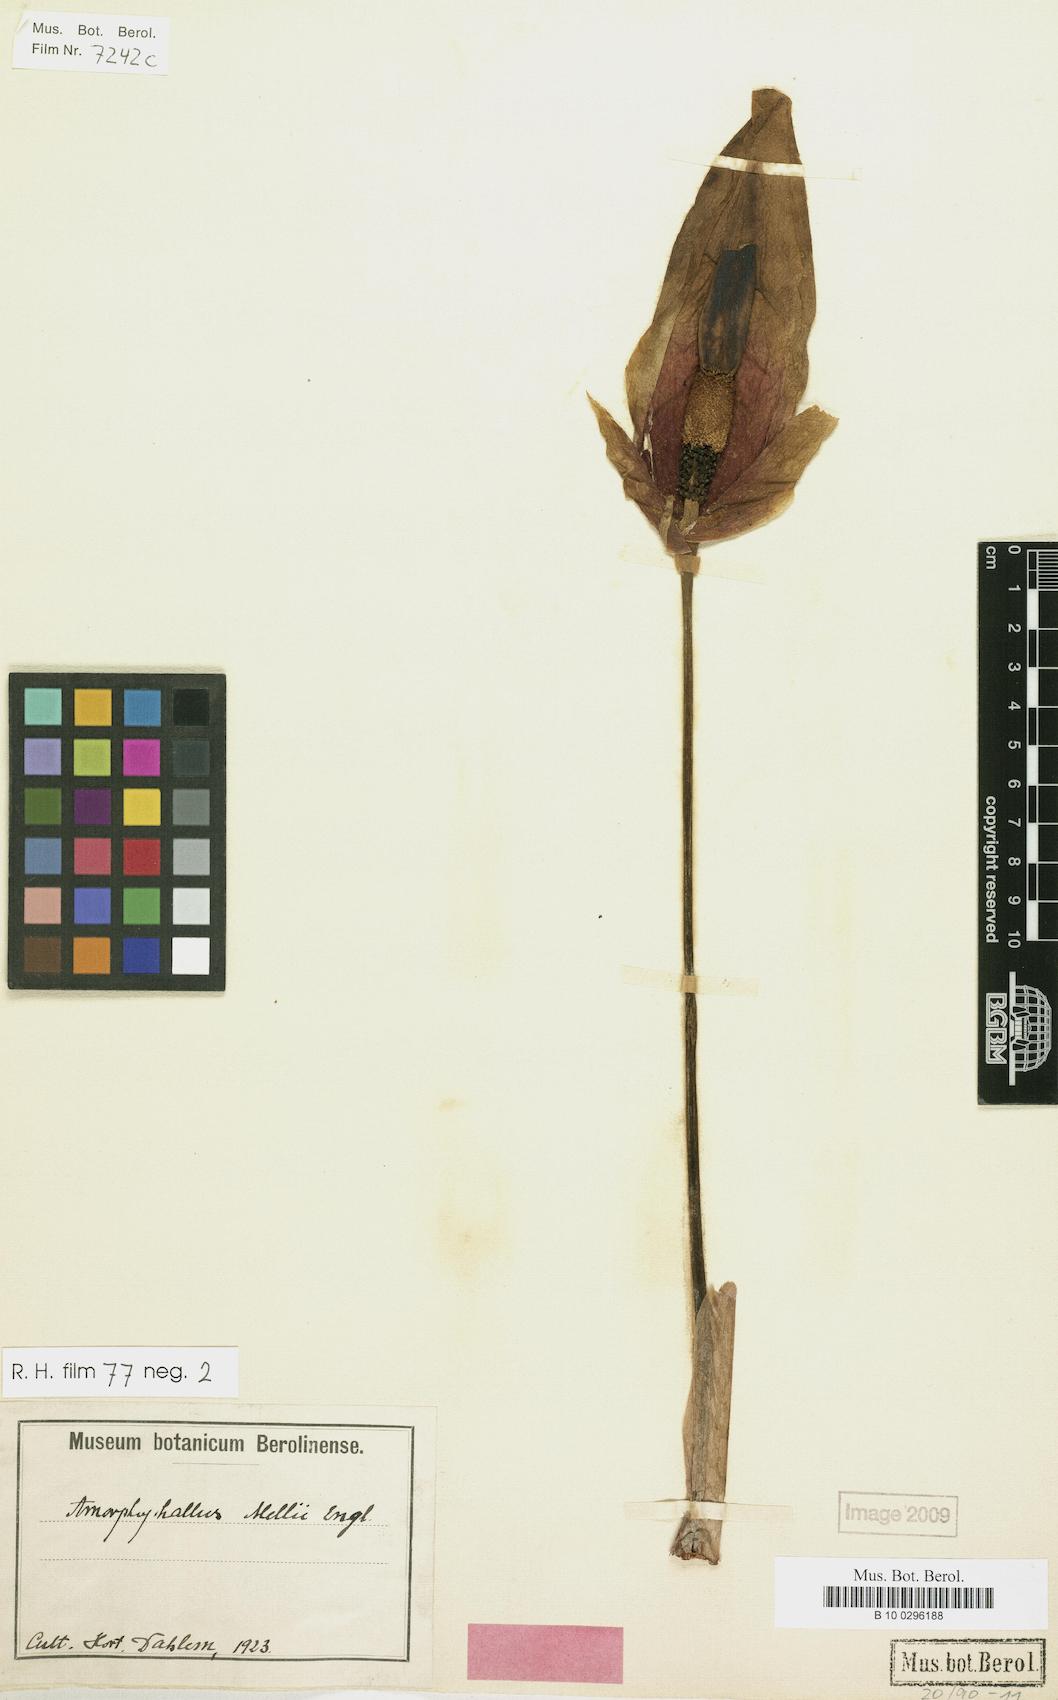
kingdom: Plantae
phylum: Tracheophyta
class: Liliopsida
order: Alismatales
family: Araceae
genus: Amorphophallus
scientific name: Amorphophallus dunnii
